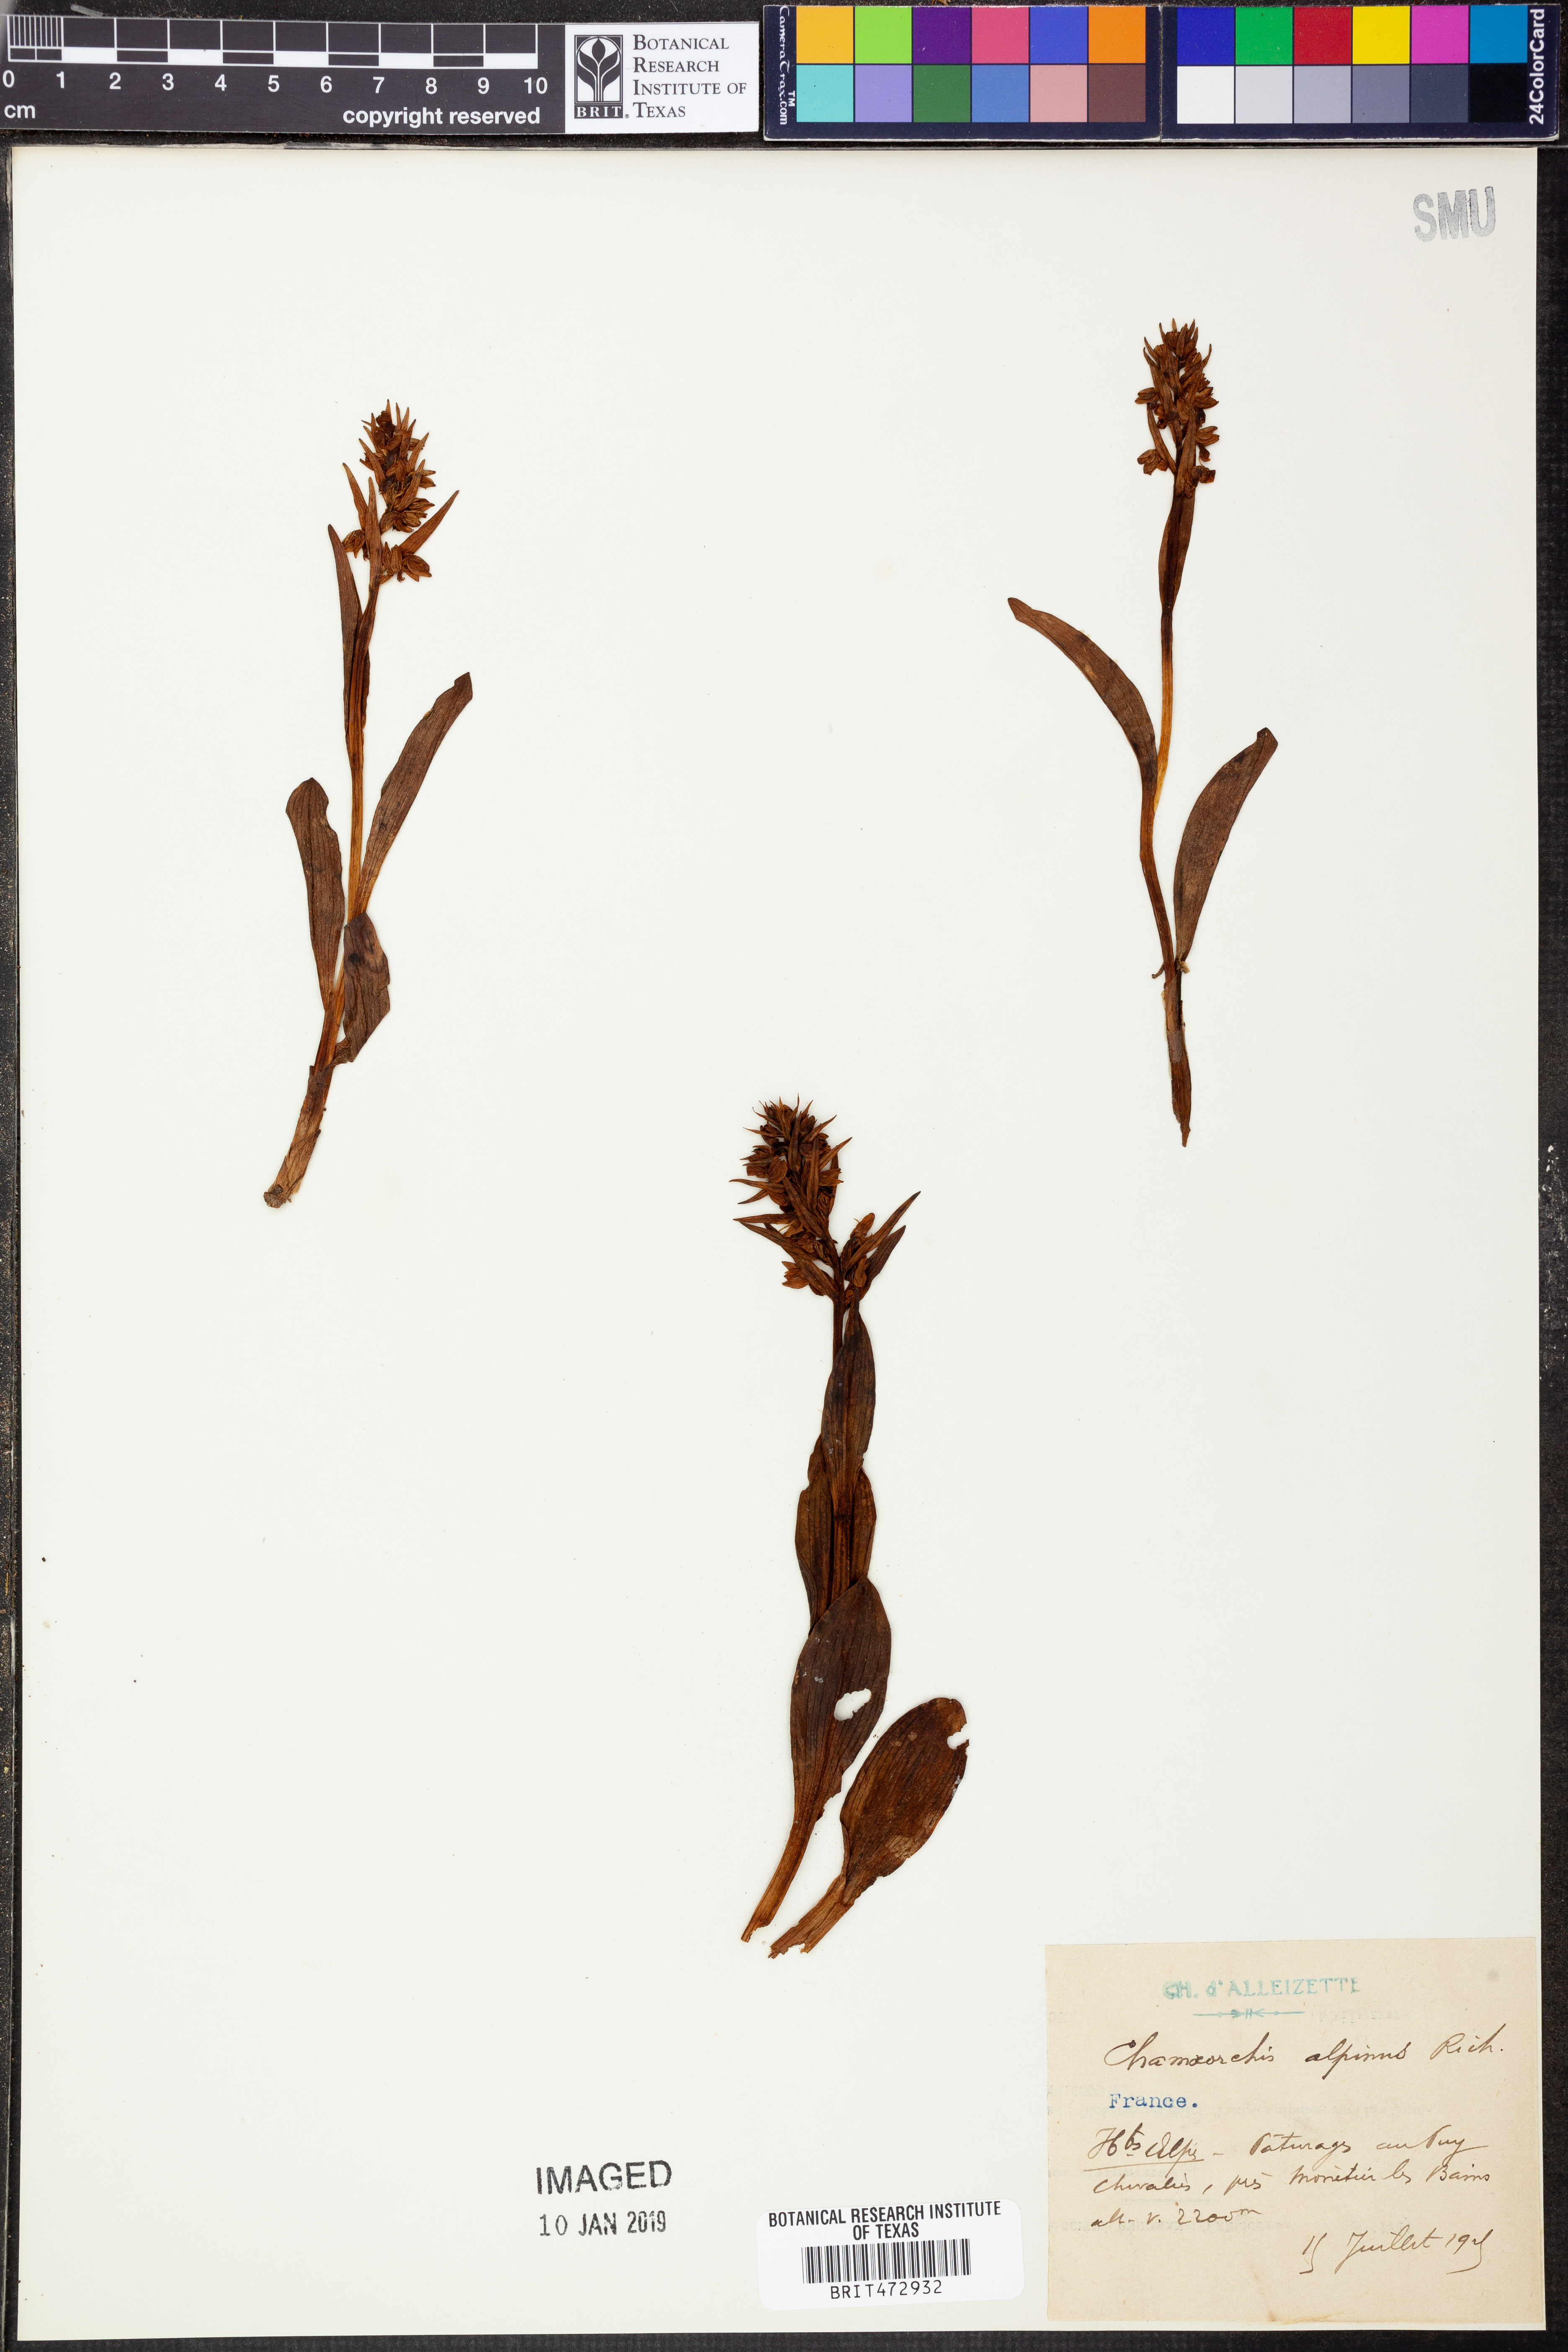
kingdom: Plantae
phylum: Tracheophyta
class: Magnoliopsida
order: Rosales
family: Rosaceae
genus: Chamaemespilus
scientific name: Chamaemespilus alpina
